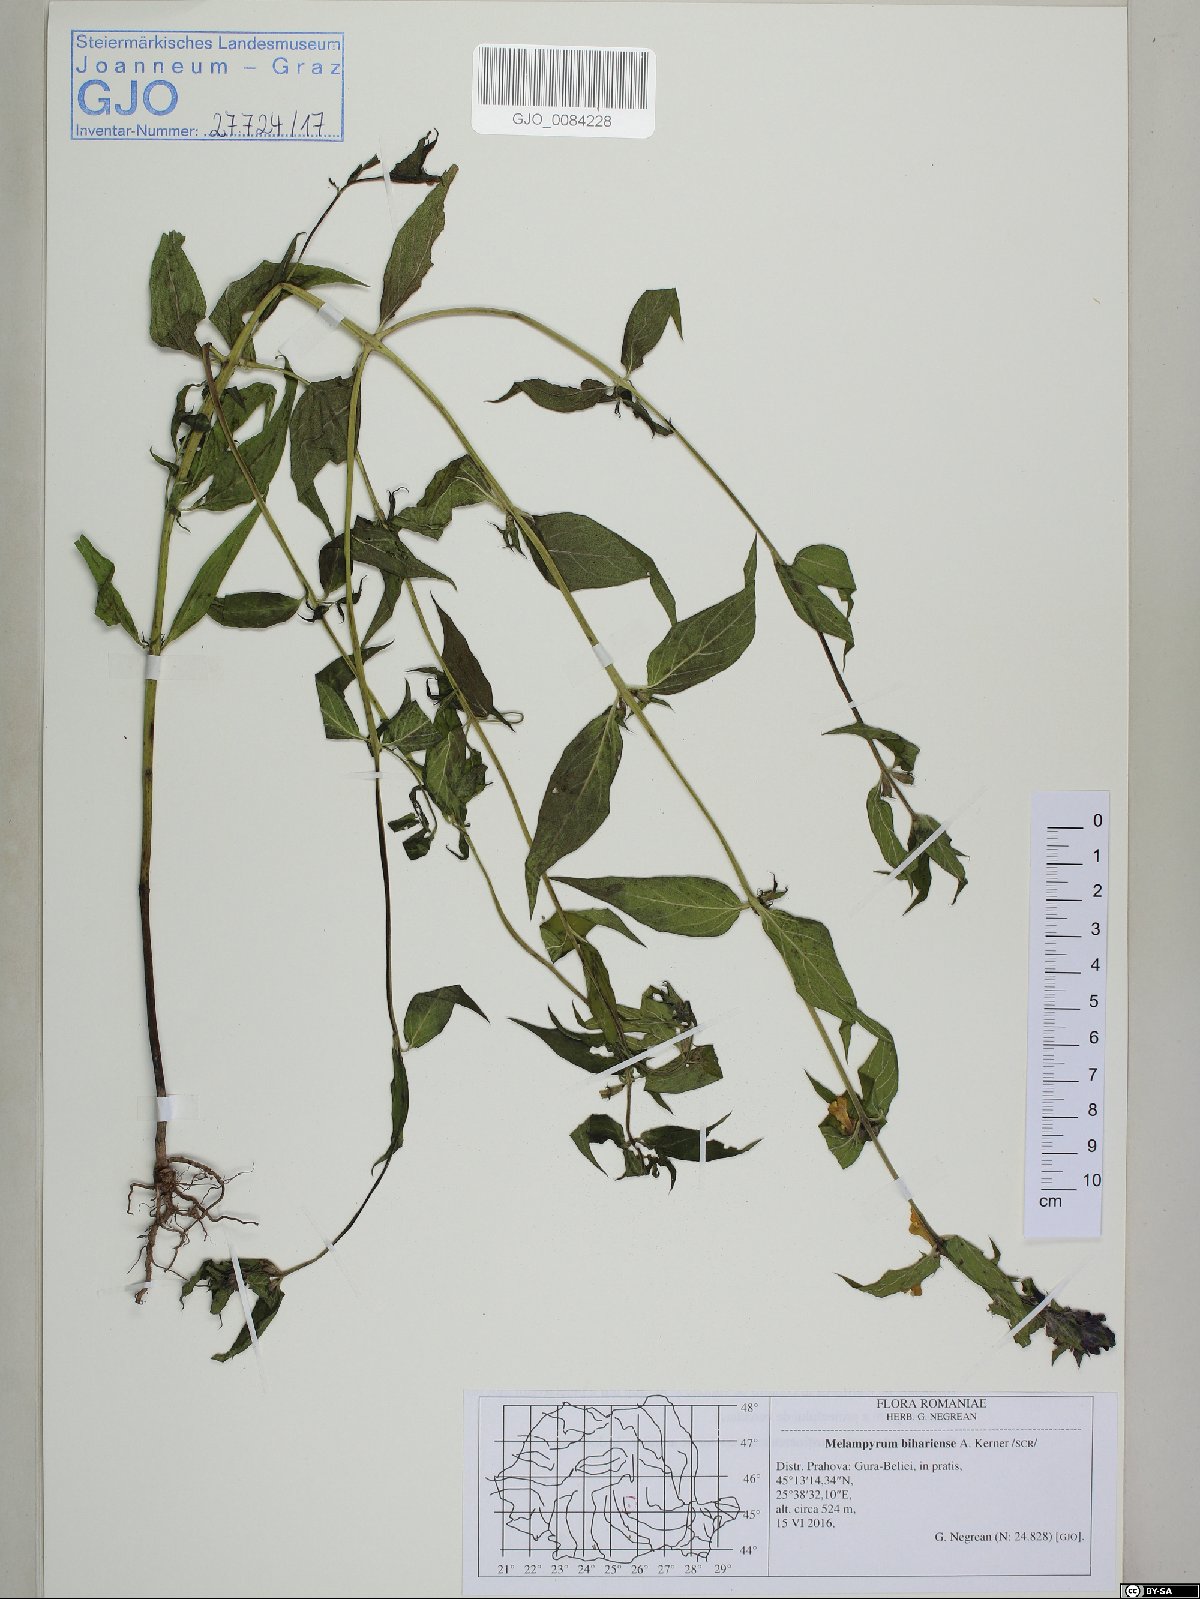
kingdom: Plantae
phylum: Tracheophyta
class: Magnoliopsida
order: Lamiales
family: Orobanchaceae
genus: Melampyrum
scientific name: Melampyrum bihariense
